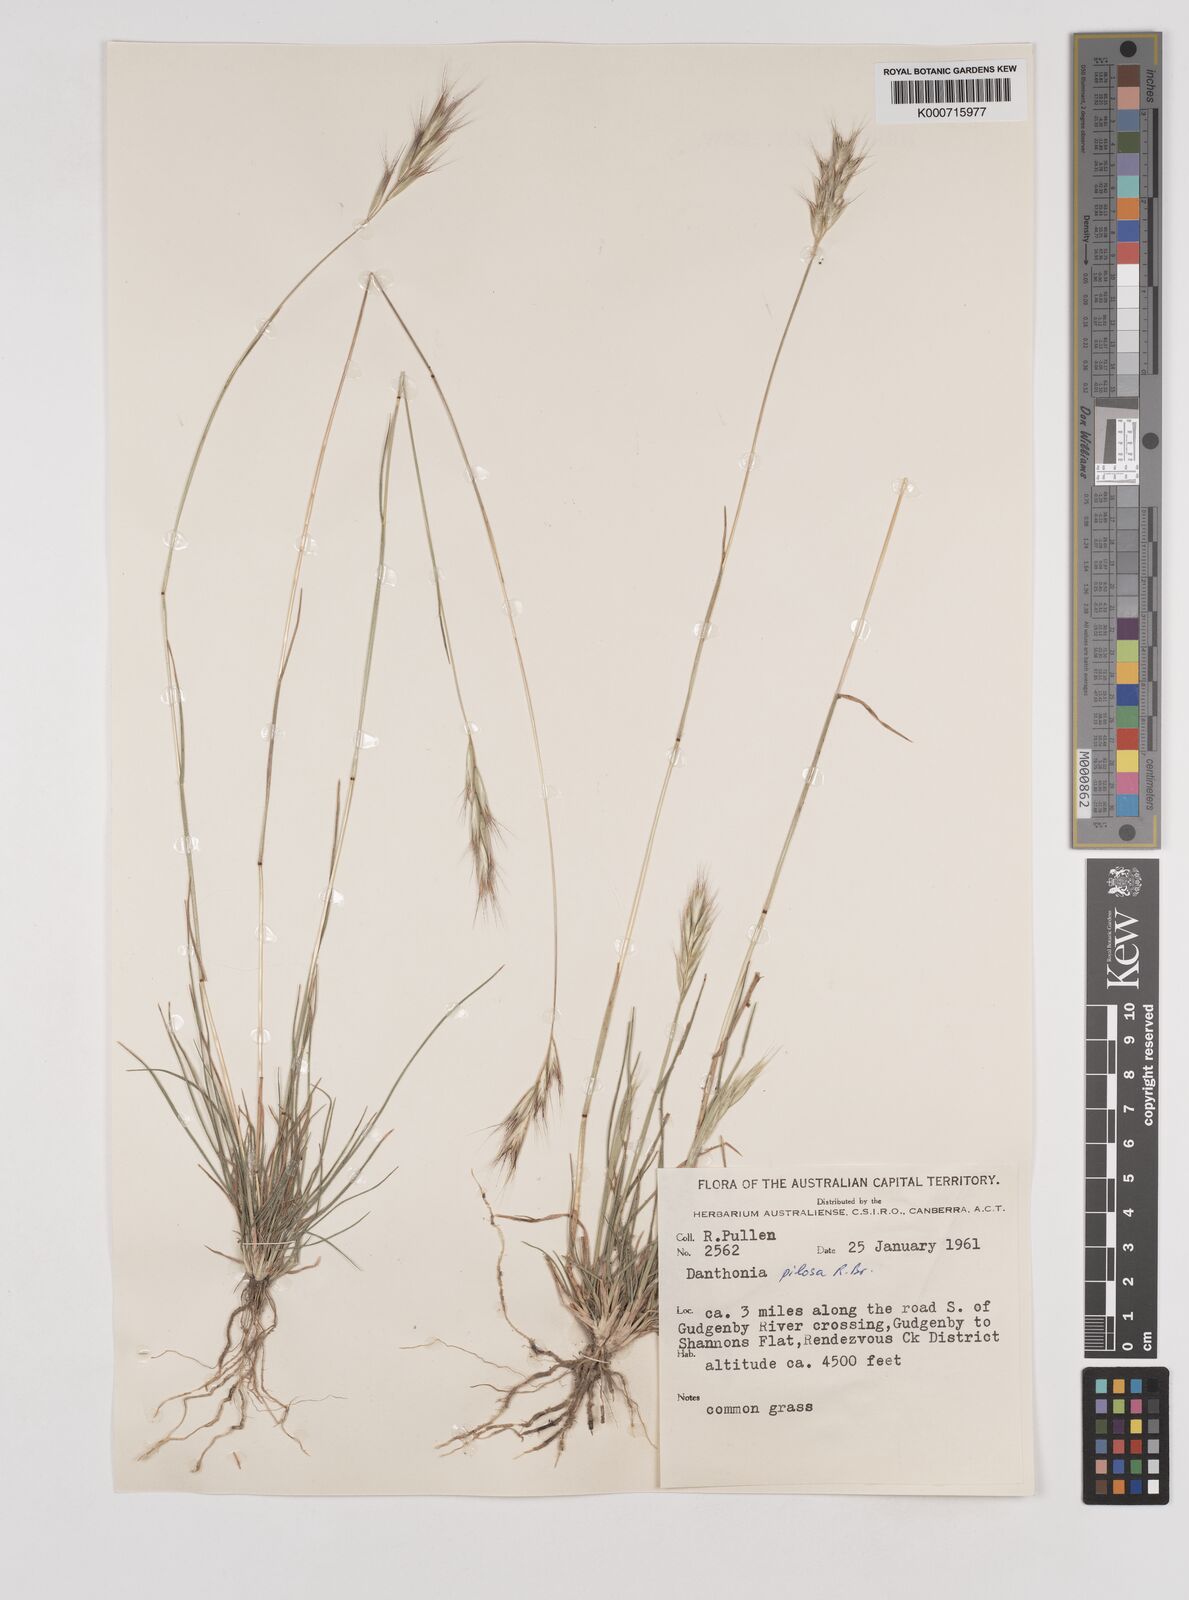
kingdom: Plantae
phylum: Tracheophyta
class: Liliopsida
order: Poales
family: Poaceae
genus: Rytidosperma
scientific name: Rytidosperma pilosum
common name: Hairy wallaby grass
